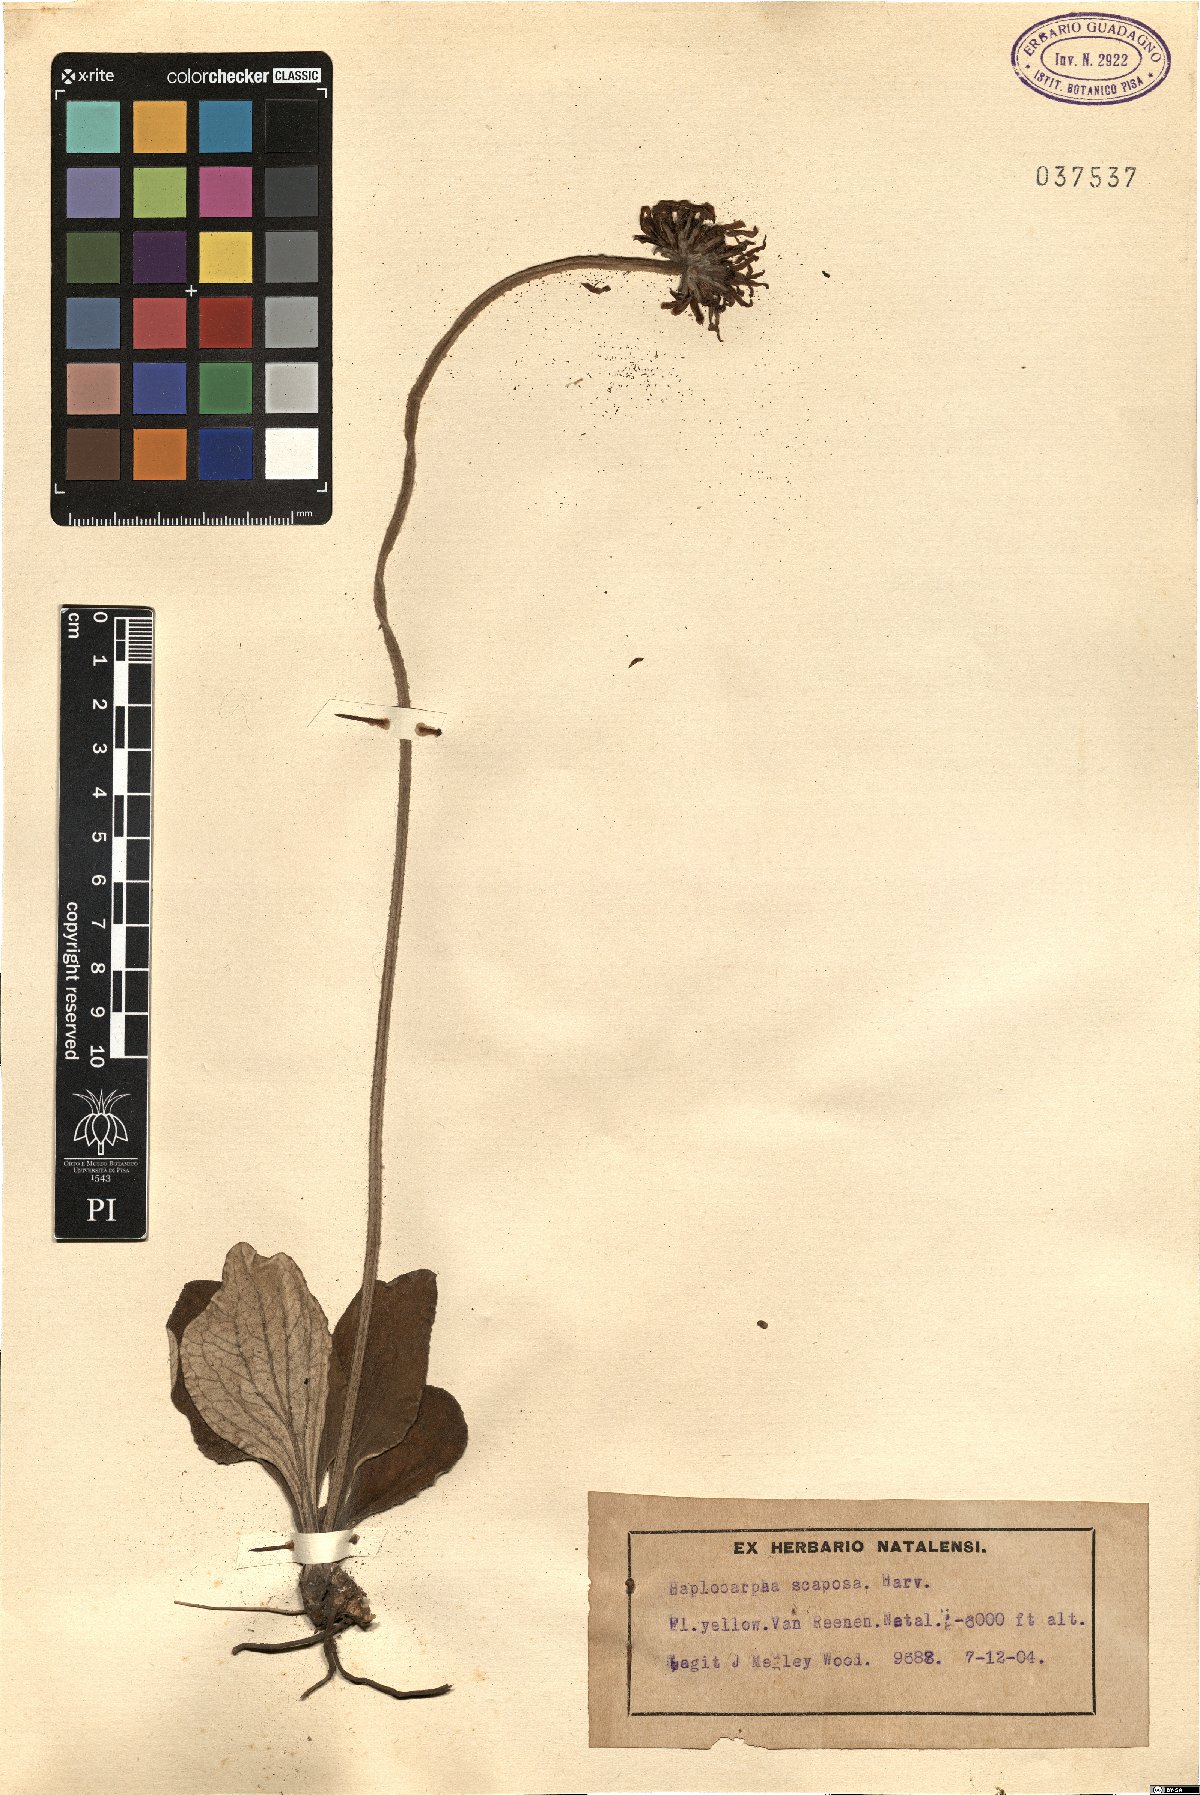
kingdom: Plantae
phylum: Tracheophyta
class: Magnoliopsida
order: Asterales
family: Asteraceae
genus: Haplocarpha
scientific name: Haplocarpha scaposa
